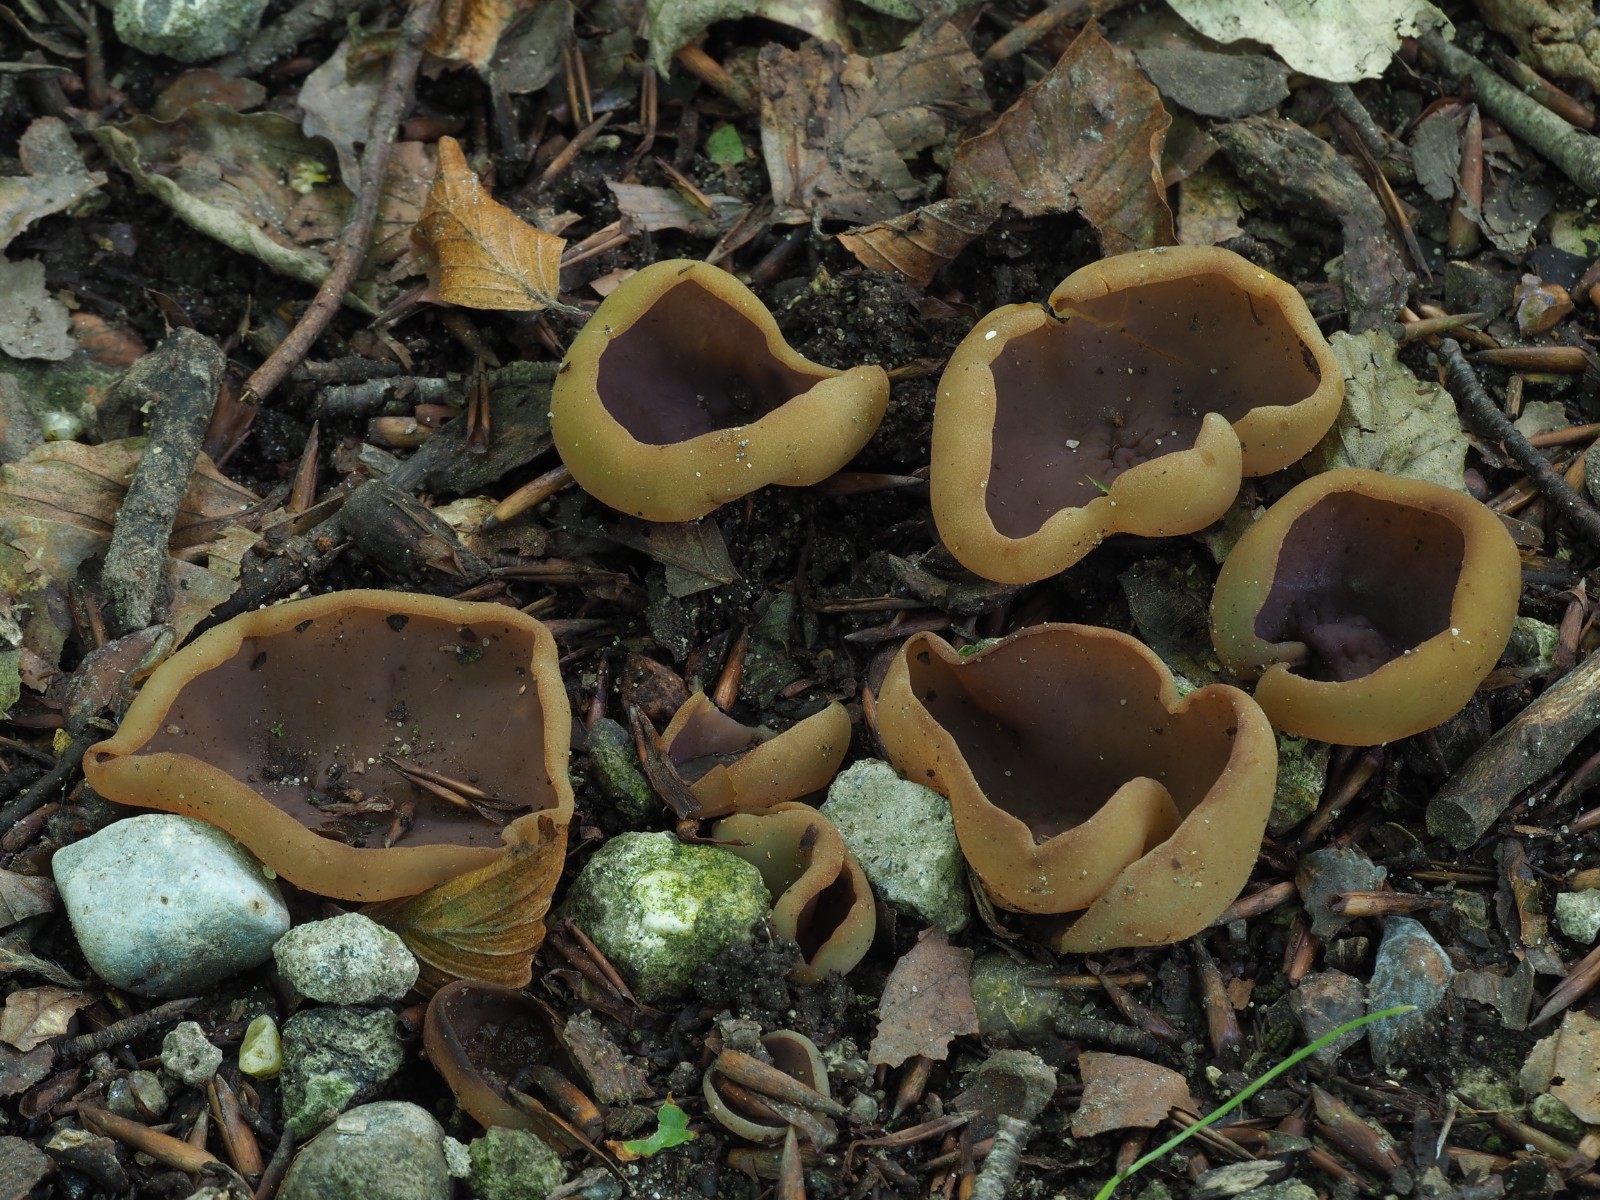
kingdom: Fungi
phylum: Ascomycota
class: Pezizomycetes
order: Pezizales
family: Pezizaceae
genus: Paragalactinia
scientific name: Paragalactinia michelii
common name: gulkødet bægersvamp
